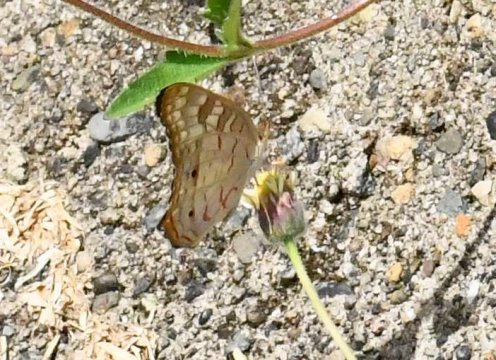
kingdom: Animalia
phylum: Arthropoda
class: Insecta
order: Lepidoptera
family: Nymphalidae
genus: Anartia
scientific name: Anartia jatrophae
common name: White Peacock
